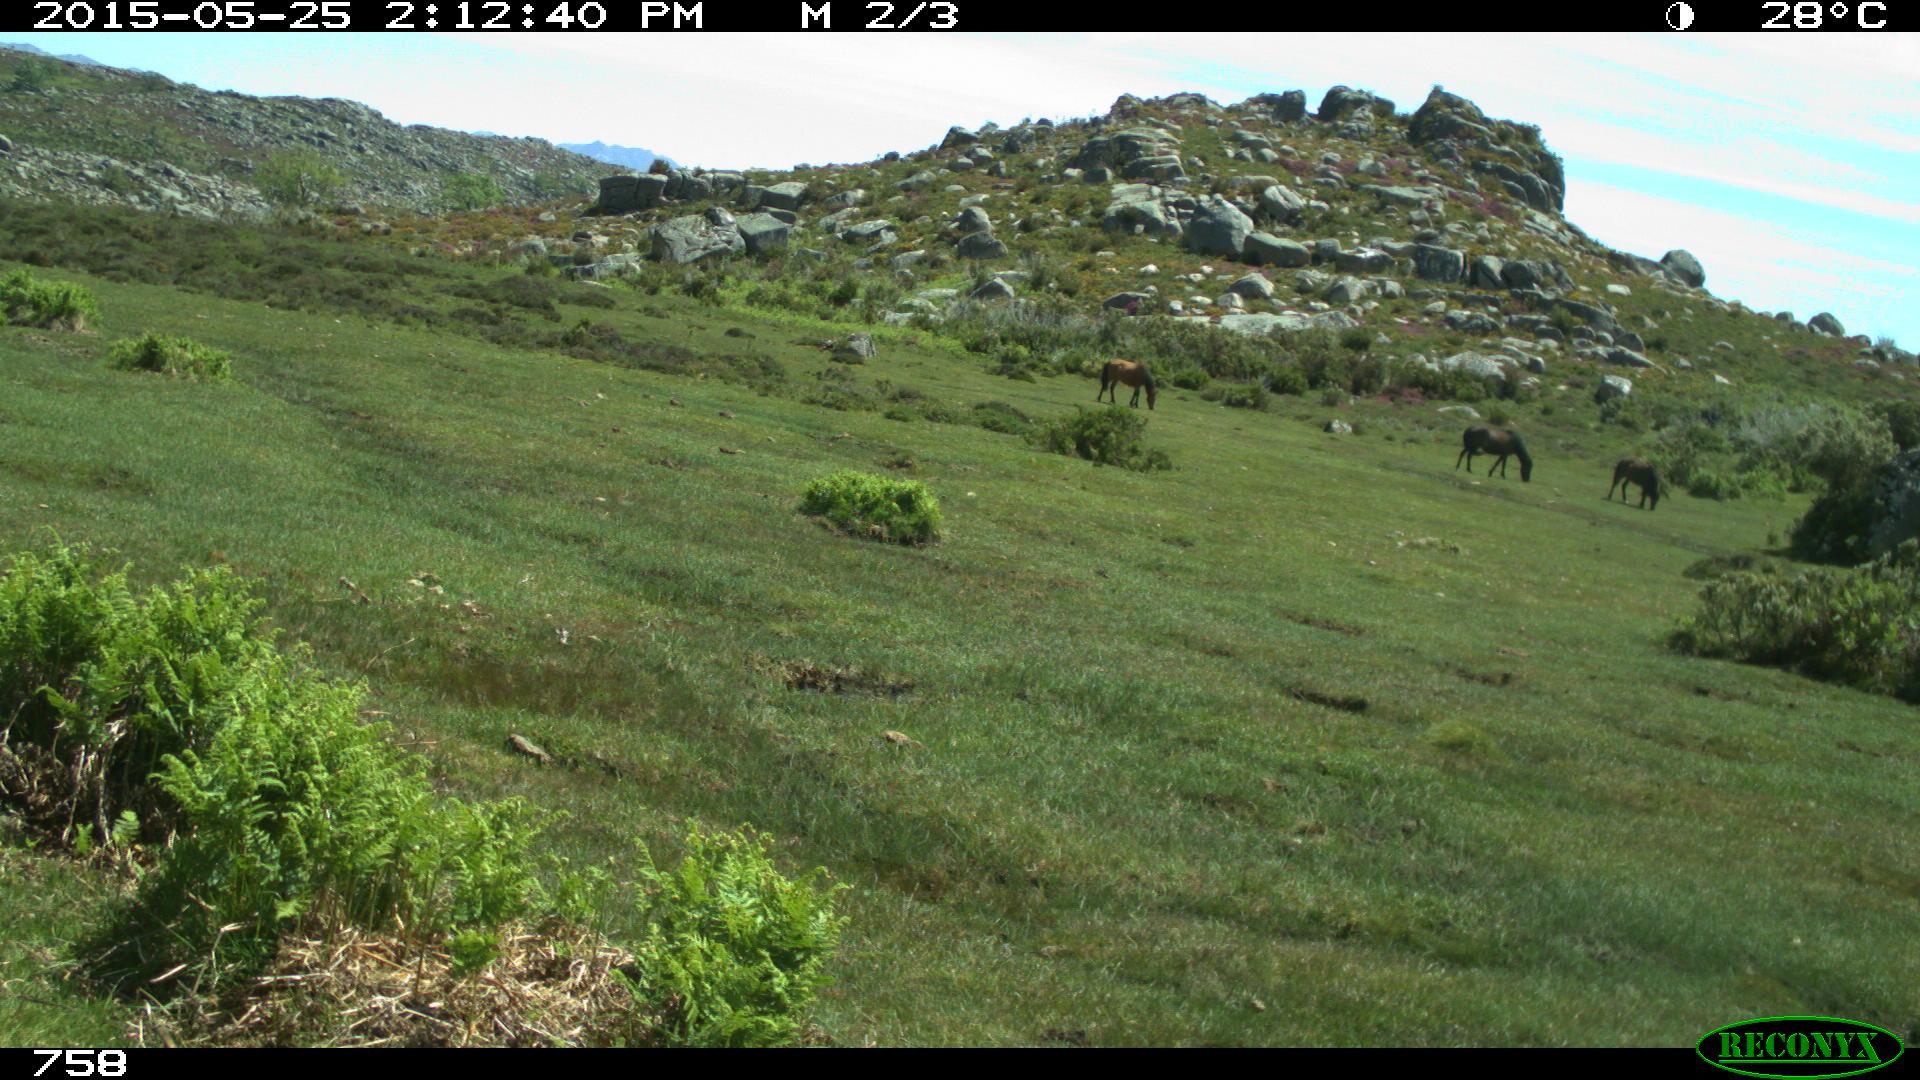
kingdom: Animalia
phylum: Chordata
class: Mammalia
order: Perissodactyla
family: Equidae
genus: Equus
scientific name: Equus caballus
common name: Horse
